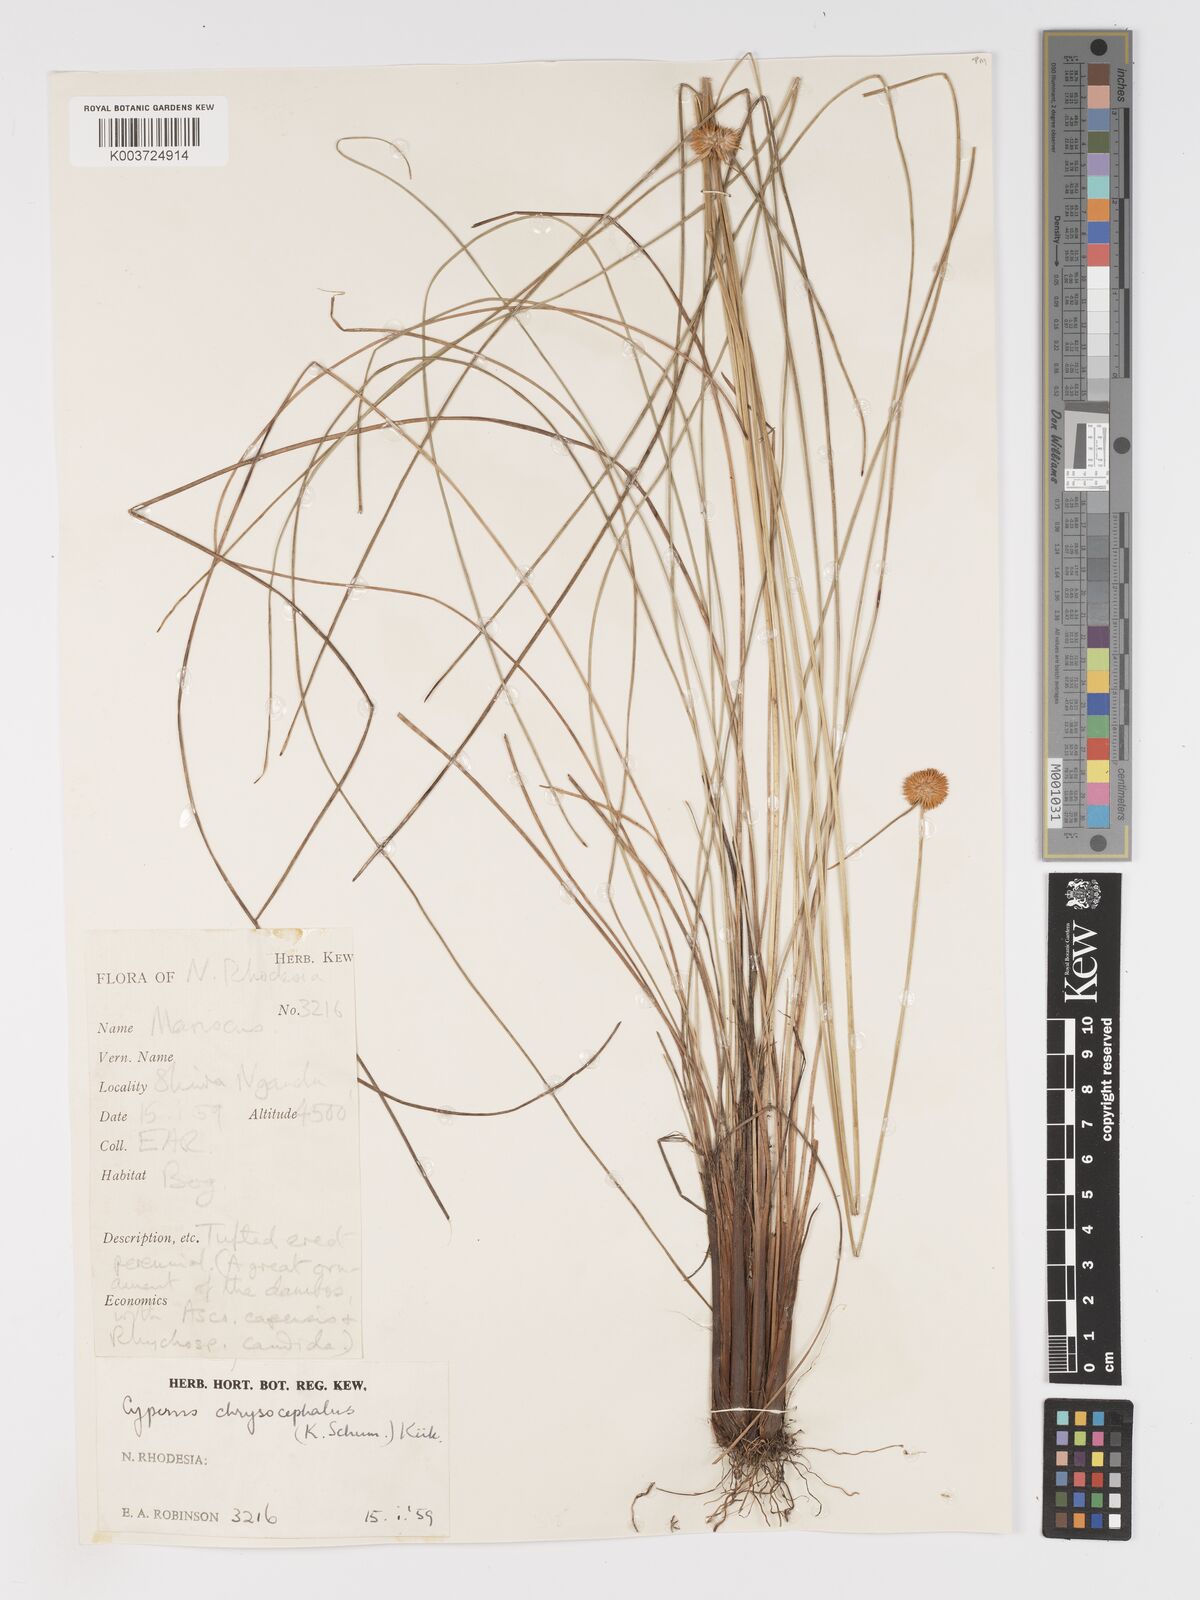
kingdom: Plantae
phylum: Tracheophyta
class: Liliopsida
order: Poales
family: Cyperaceae
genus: Cyperus
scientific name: Cyperus chrysocephalus
